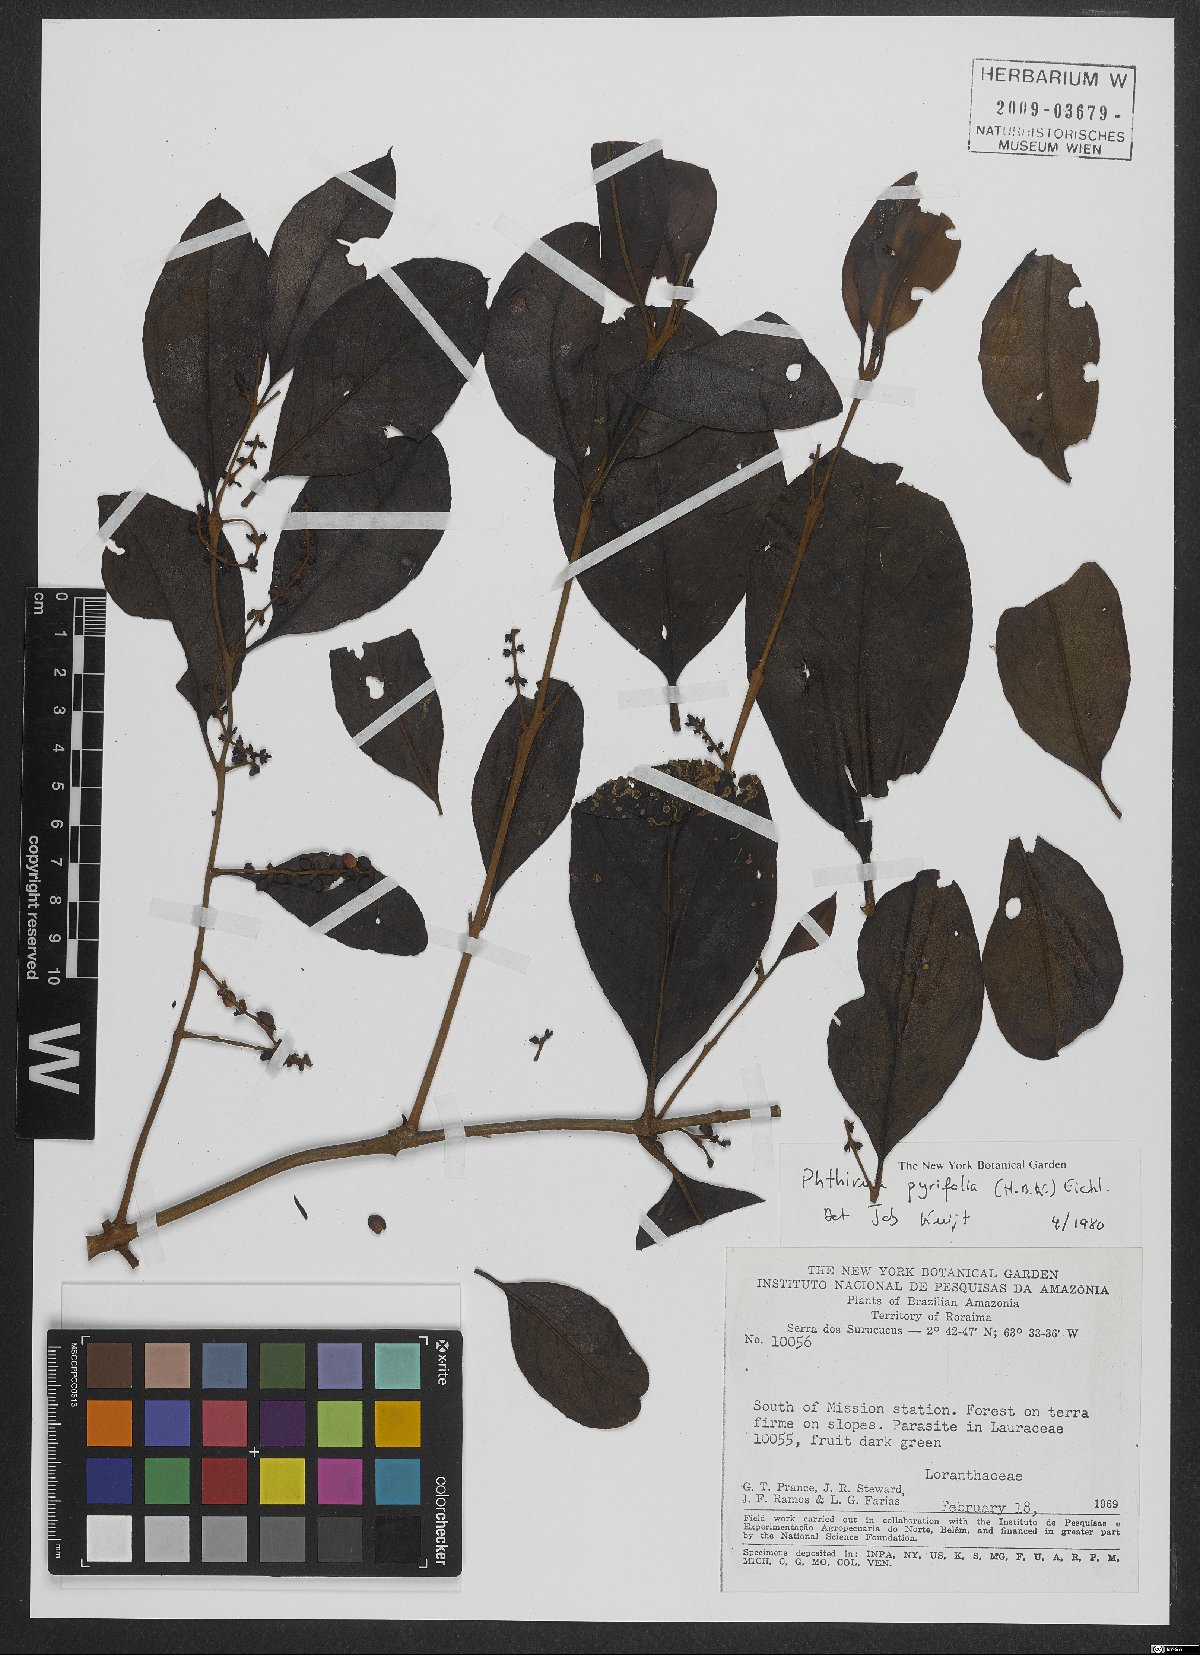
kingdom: Plantae
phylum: Tracheophyta
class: Magnoliopsida
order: Santalales
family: Loranthaceae
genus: Passovia
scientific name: Passovia pyrifolia
